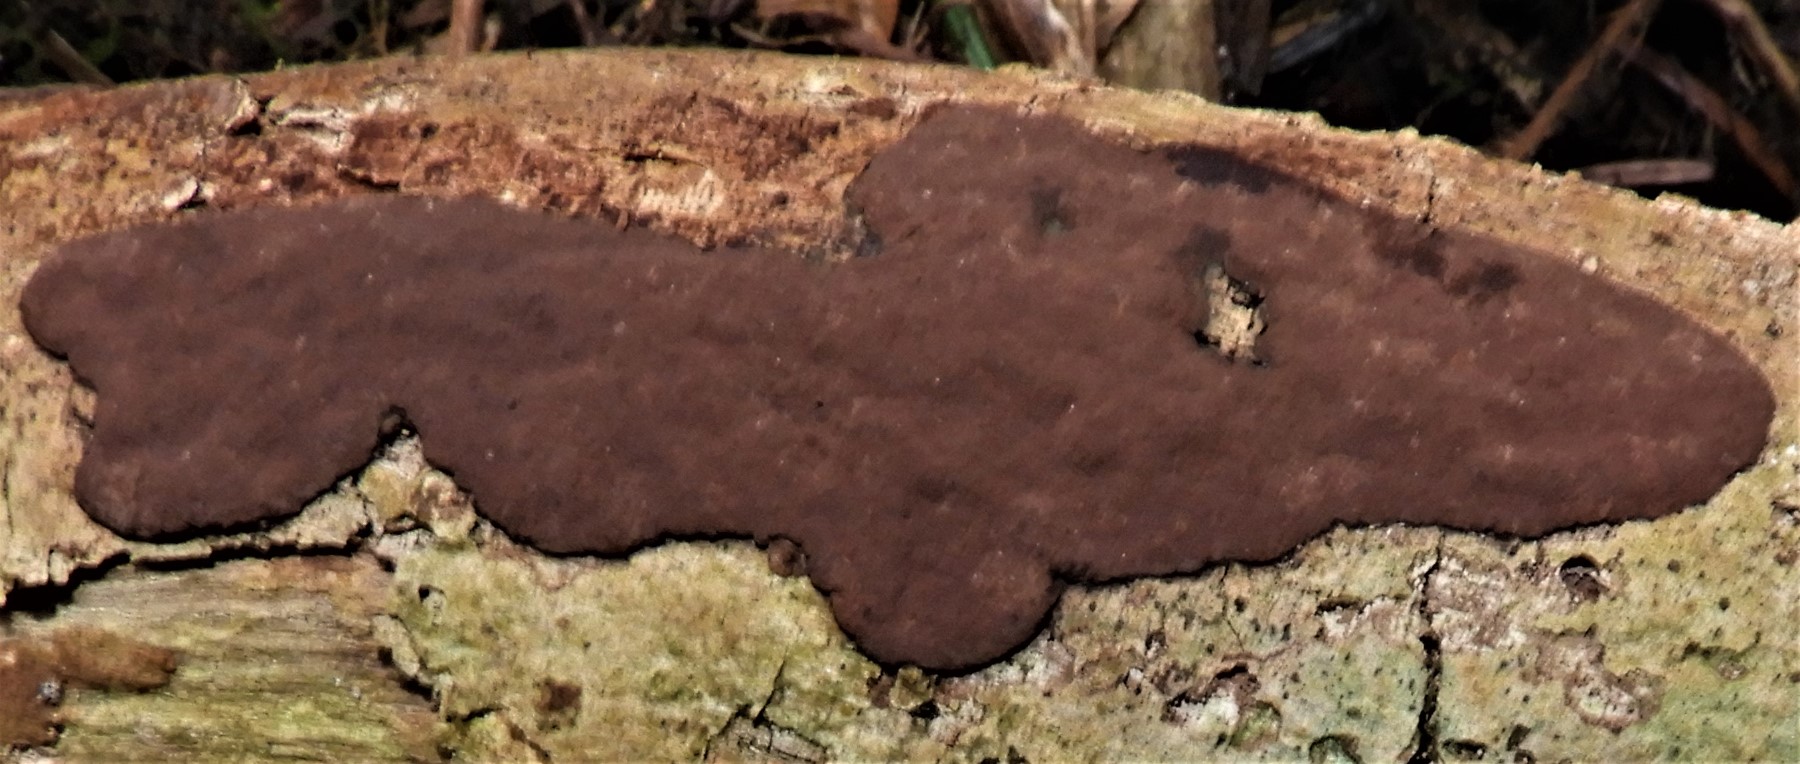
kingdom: Fungi
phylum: Ascomycota
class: Sordariomycetes
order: Xylariales
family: Hypoxylaceae
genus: Hypoxylon
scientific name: Hypoxylon petriniae
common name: nedsænket kulbær
